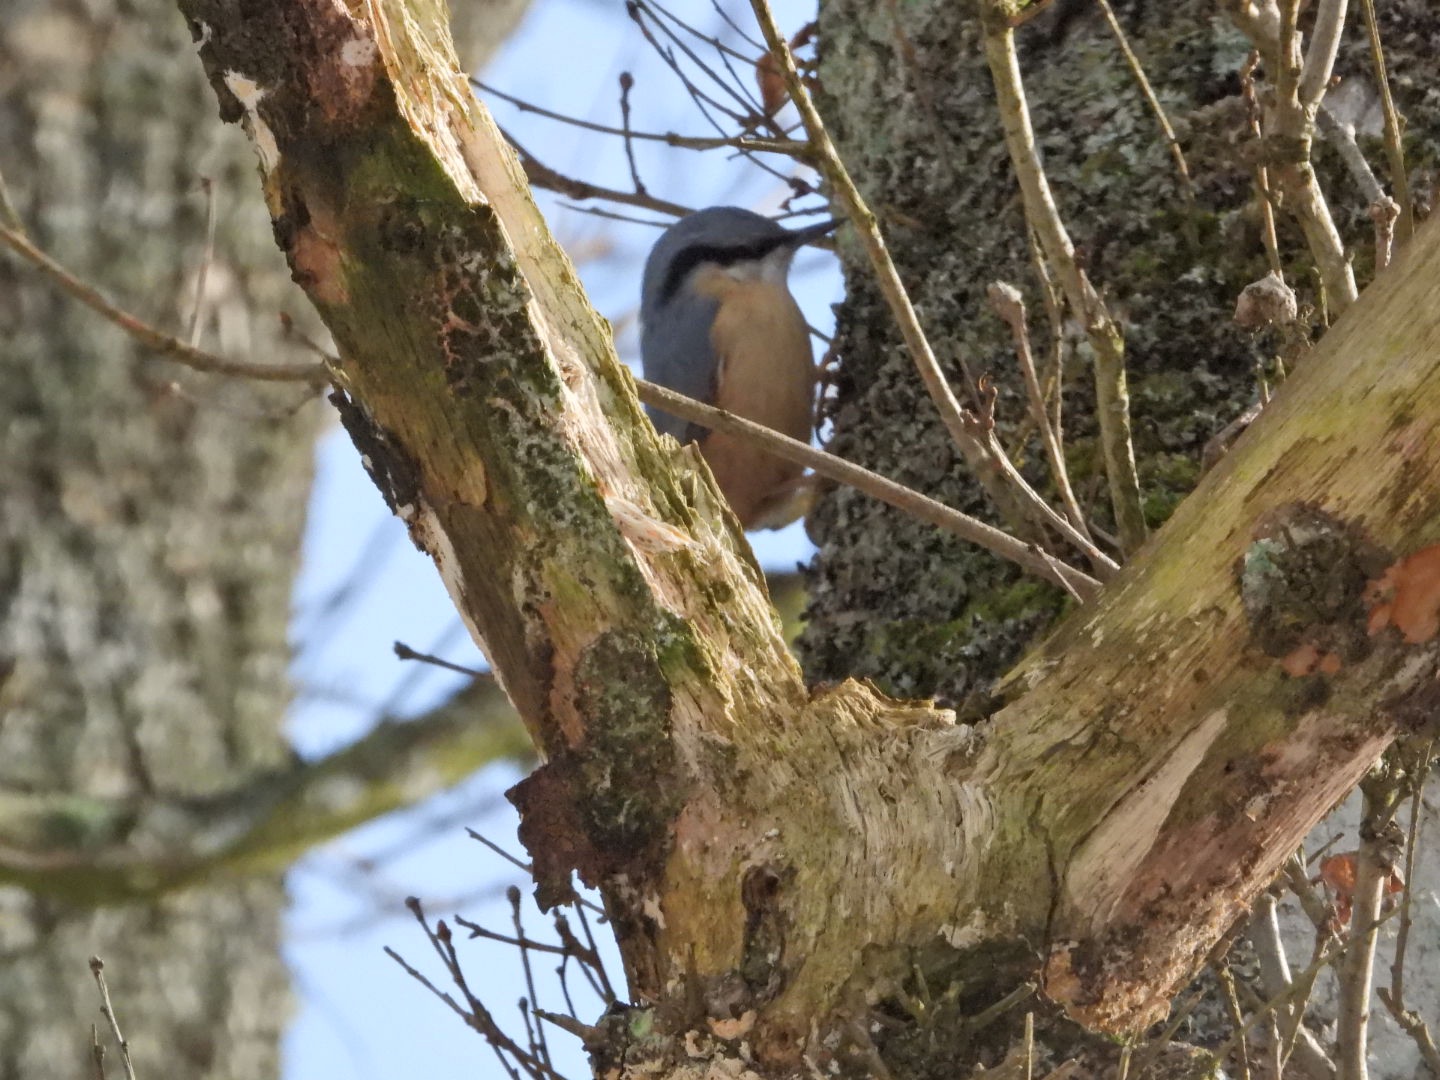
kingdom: Animalia
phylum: Chordata
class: Aves
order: Passeriformes
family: Sittidae
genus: Sitta
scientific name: Sitta europaea
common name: Spætmejse
